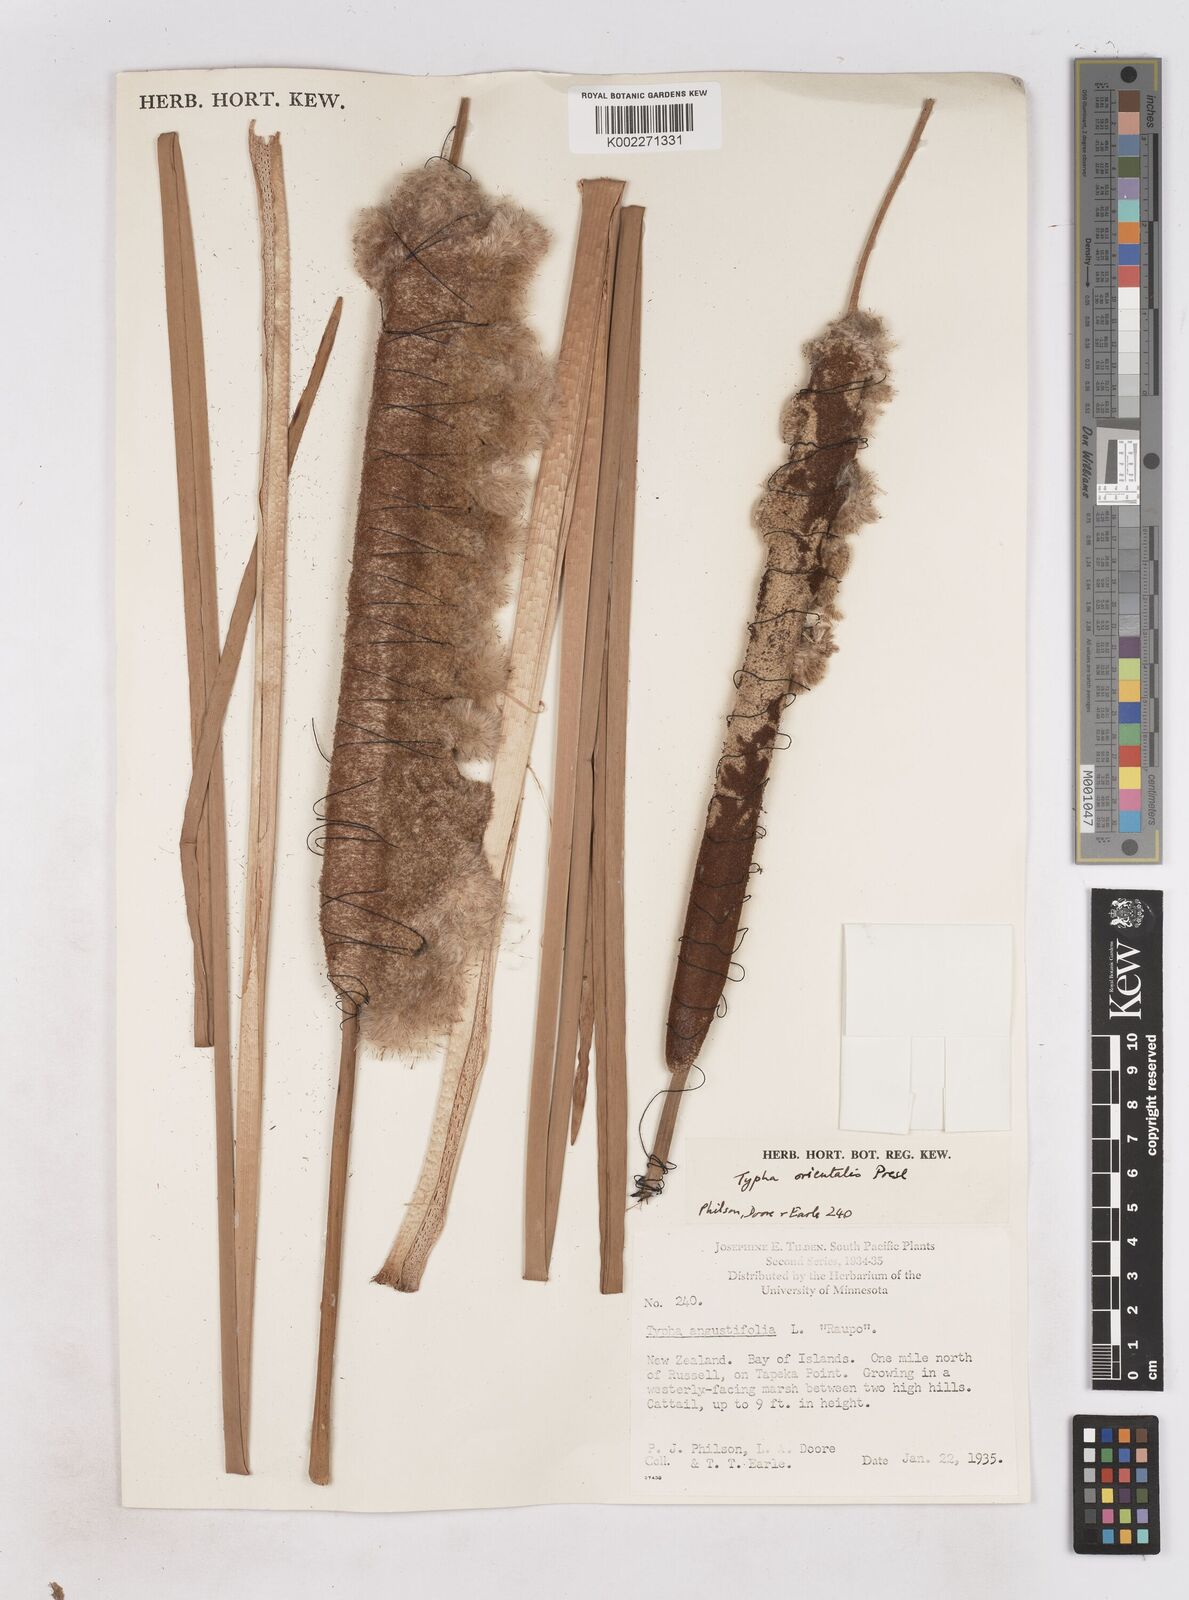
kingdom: Plantae
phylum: Tracheophyta
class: Liliopsida
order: Poales
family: Typhaceae
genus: Typha
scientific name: Typha orientalis
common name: Bullrush
